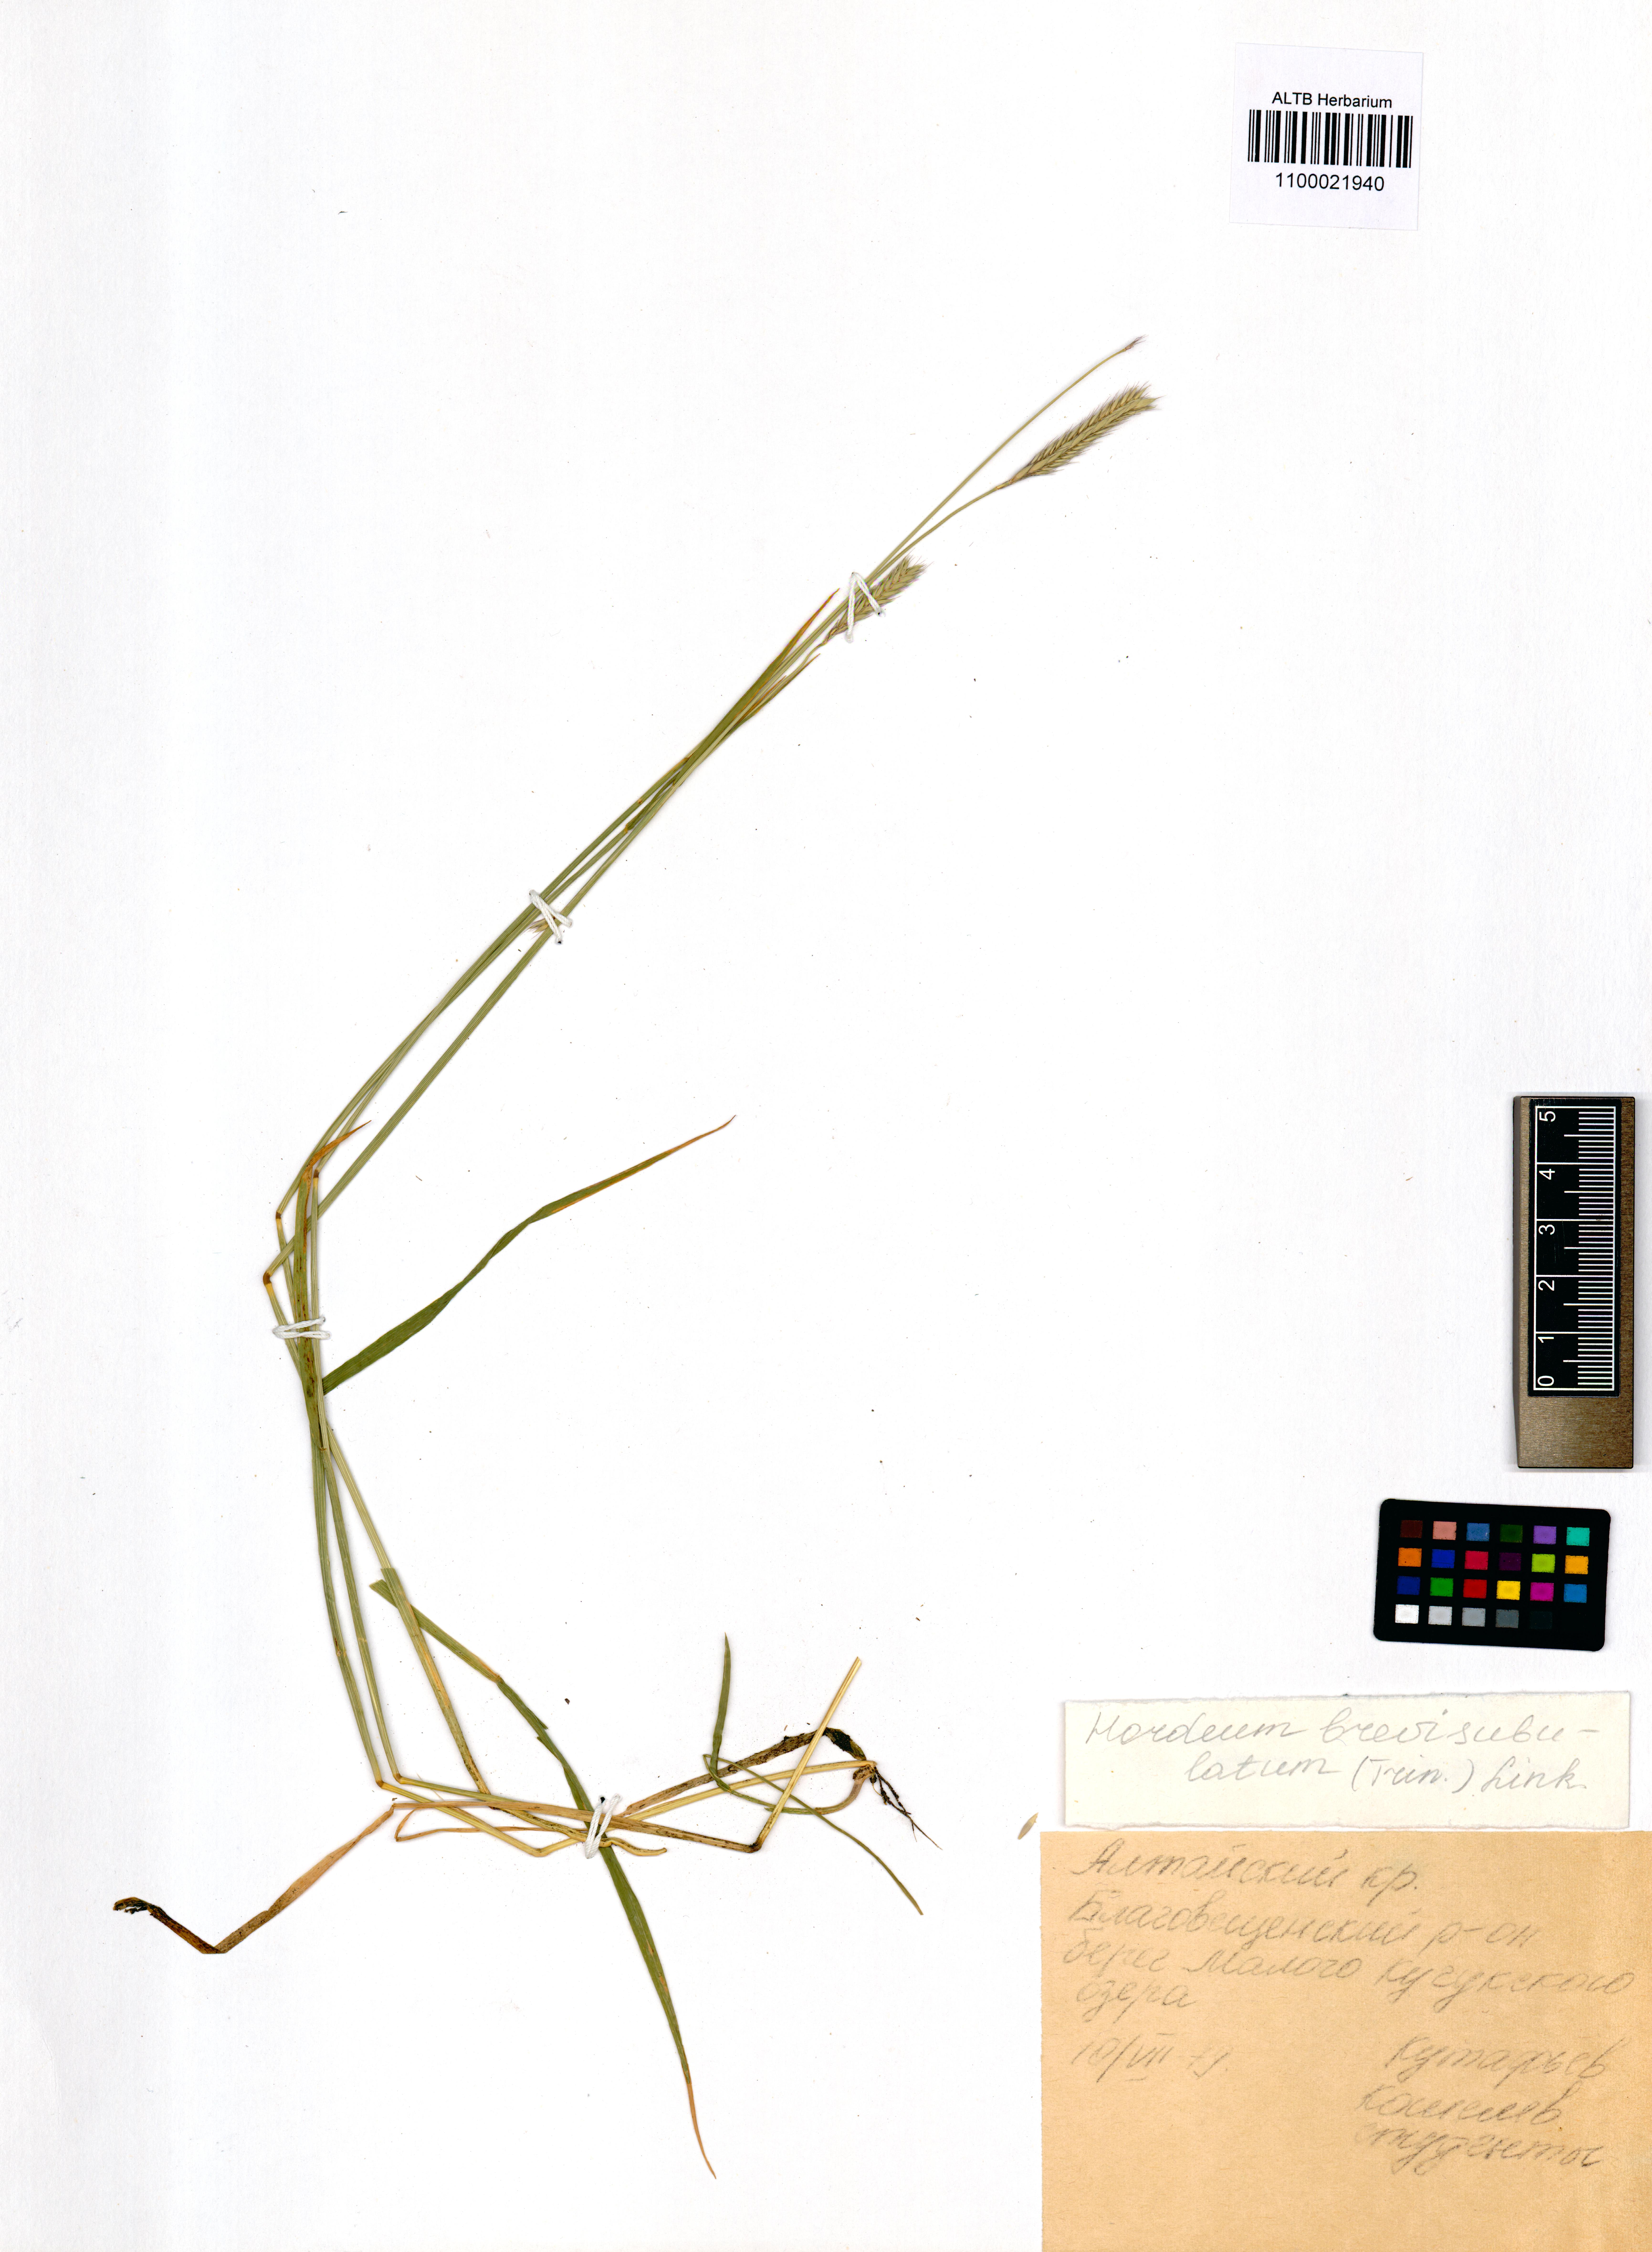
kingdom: Plantae
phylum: Tracheophyta
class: Liliopsida
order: Poales
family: Poaceae
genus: Hordeum
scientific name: Hordeum brevisubulatum
